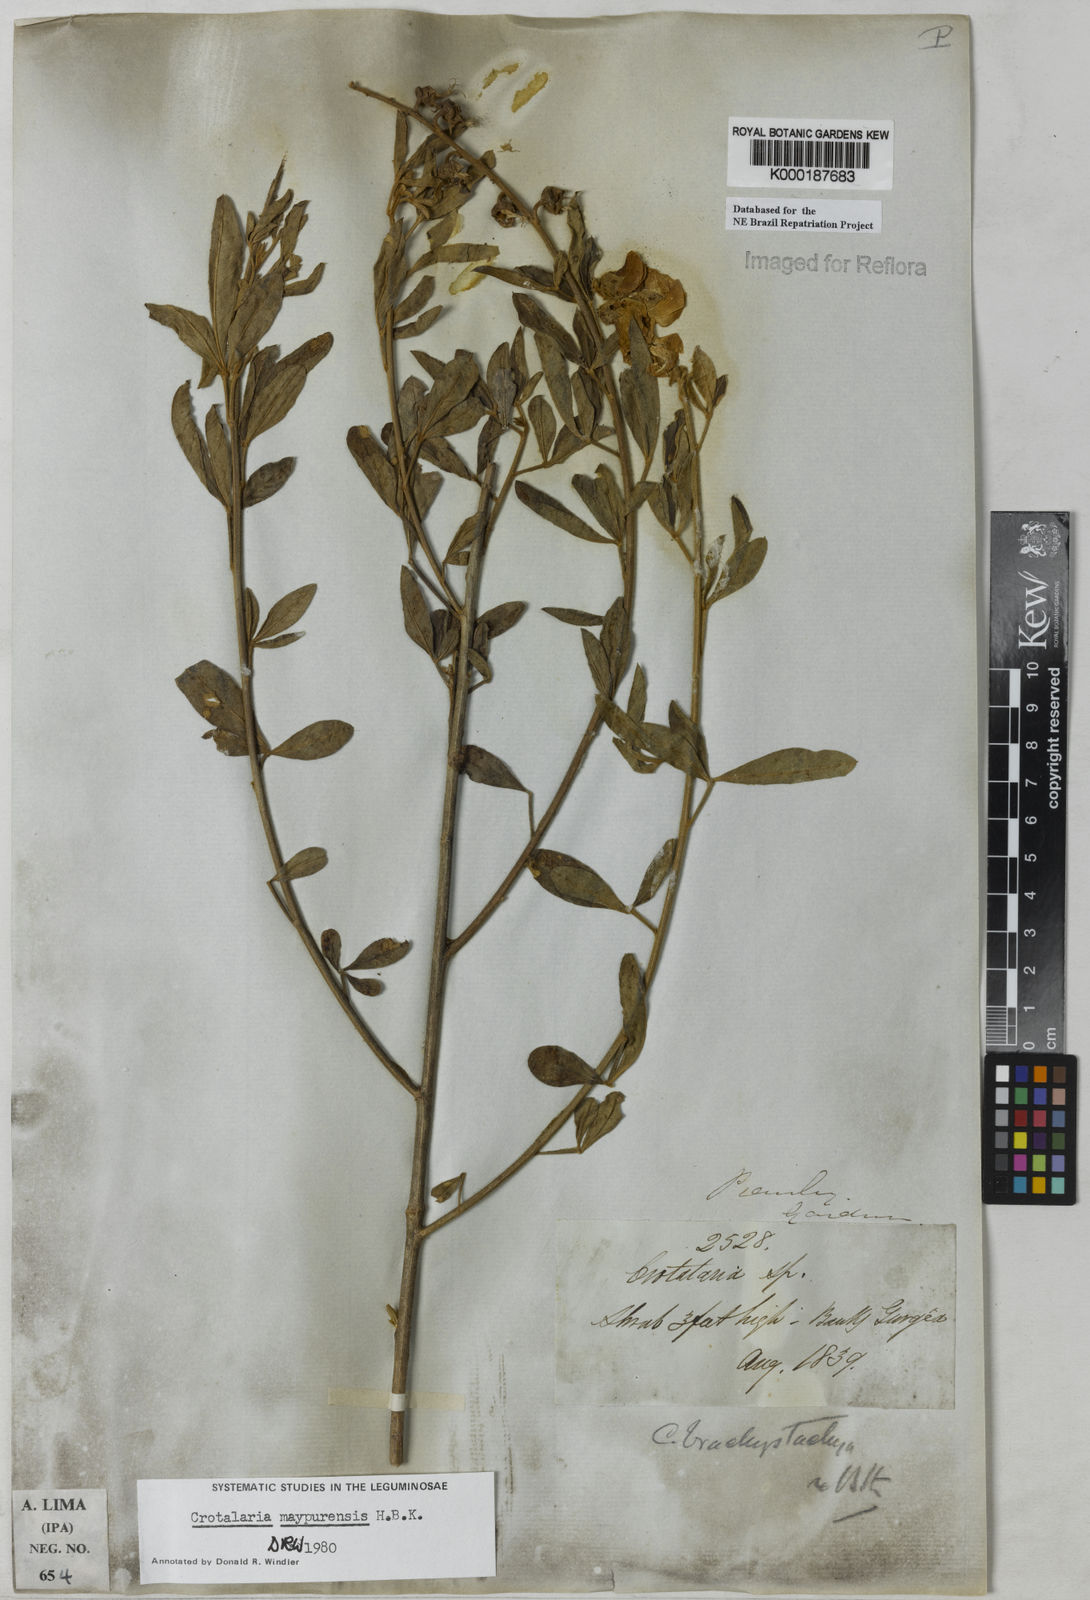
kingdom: Plantae
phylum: Tracheophyta
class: Magnoliopsida
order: Fabales
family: Fabaceae
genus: Crotalaria
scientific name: Crotalaria maypurensis
